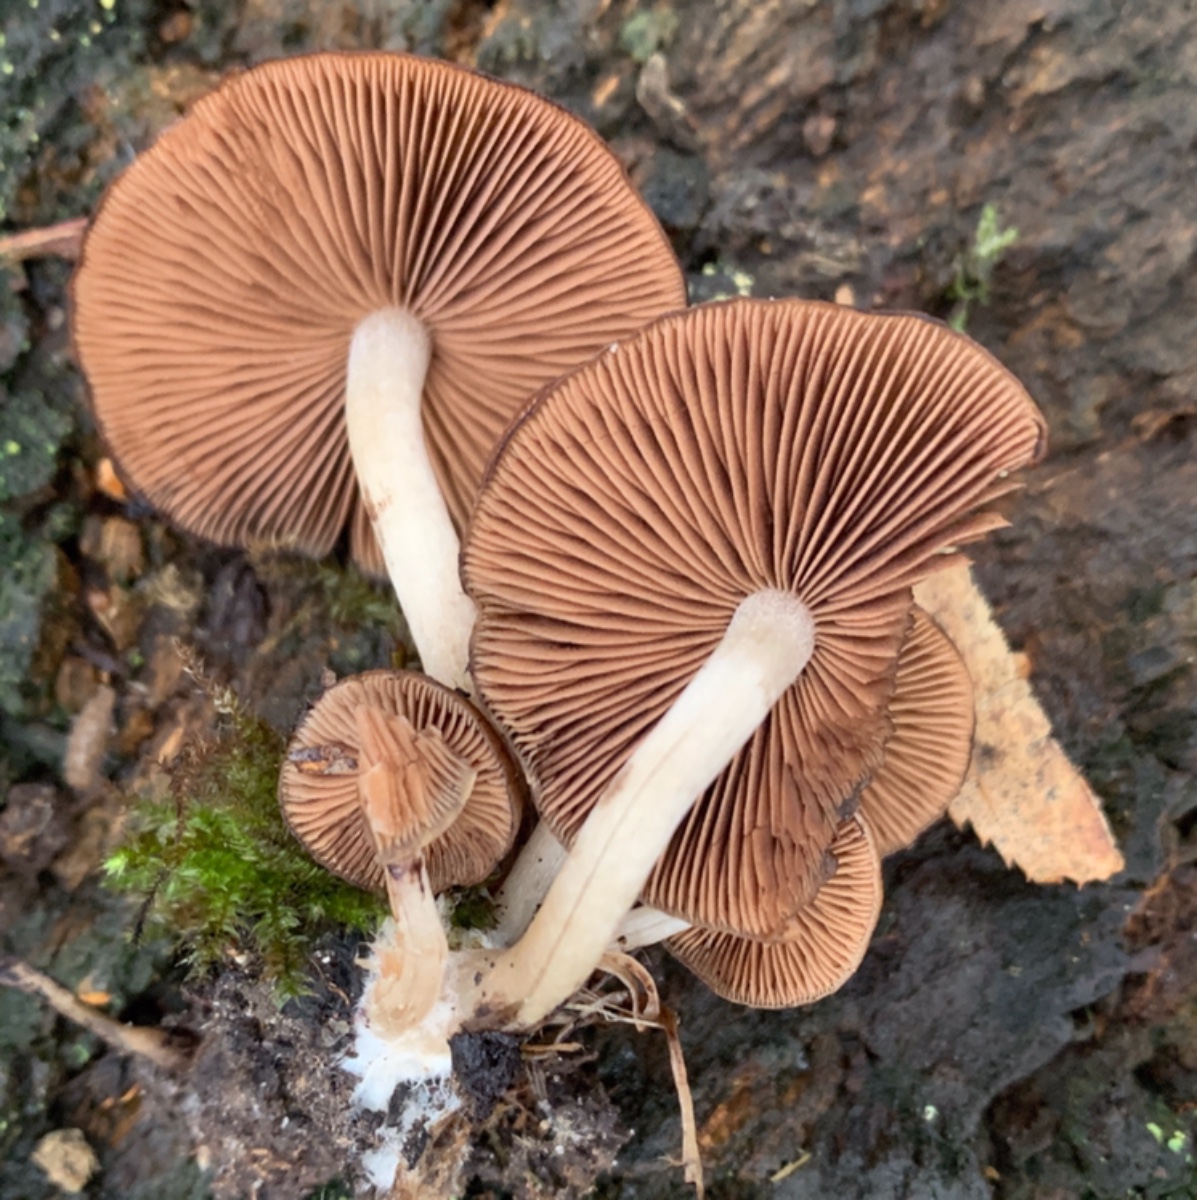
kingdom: Fungi
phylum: Basidiomycota
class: Agaricomycetes
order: Agaricales
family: Psathyrellaceae
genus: Psathyrella
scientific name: Psathyrella piluliformis
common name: lysstokket mørkhat
